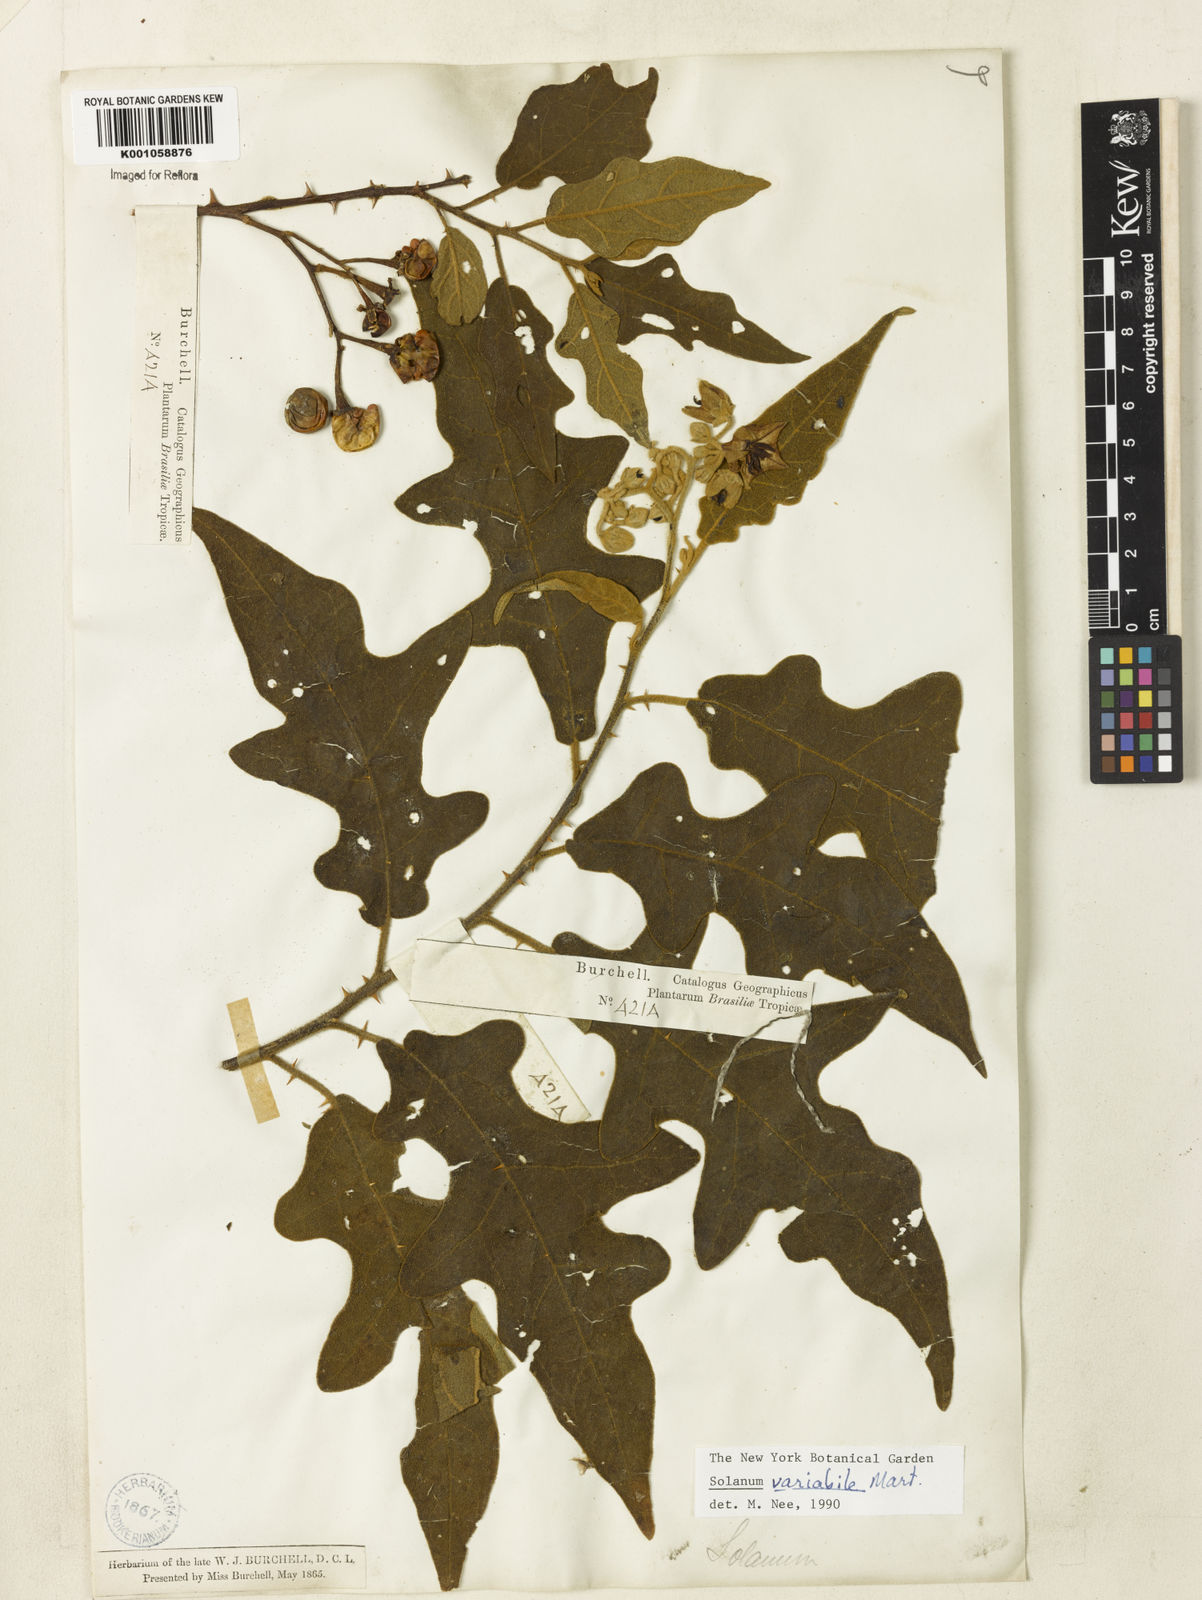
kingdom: Plantae
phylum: Tracheophyta
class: Magnoliopsida
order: Solanales
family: Solanaceae
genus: Solanum
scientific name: Solanum variabile
